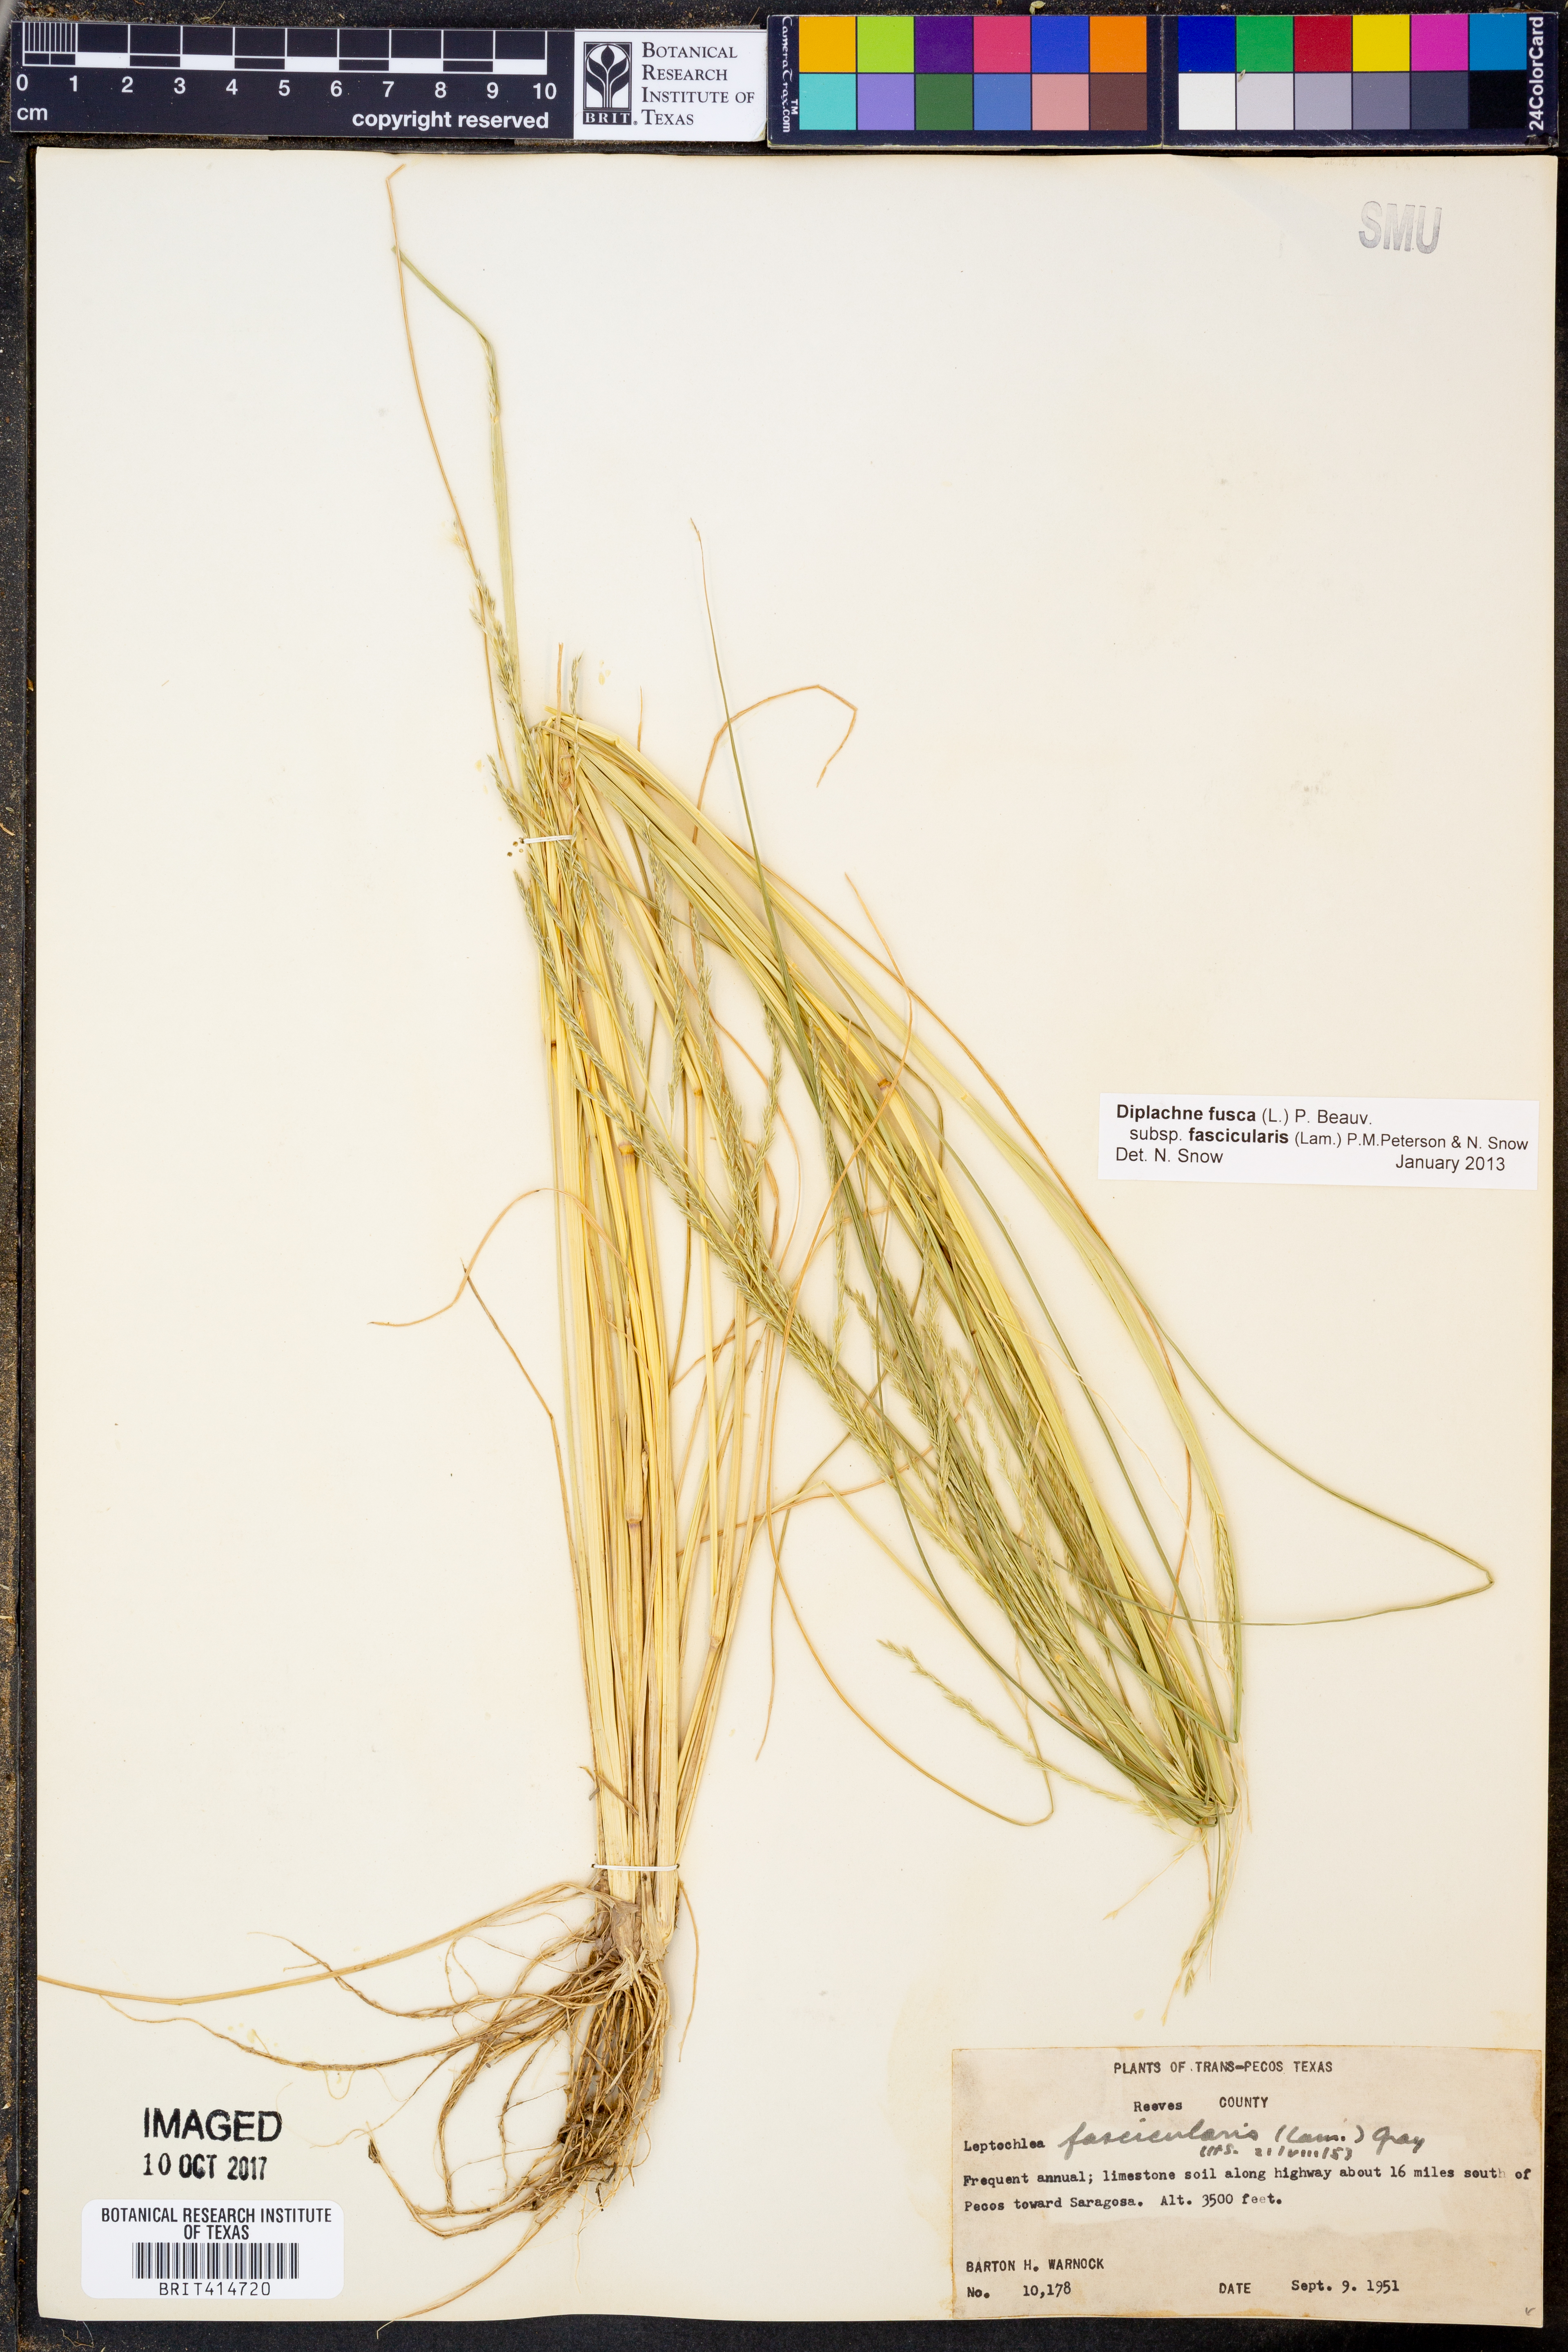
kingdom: Plantae
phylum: Tracheophyta
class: Liliopsida
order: Poales
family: Poaceae
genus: Diplachne
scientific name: Diplachne fusca
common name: Brown beetle grass
